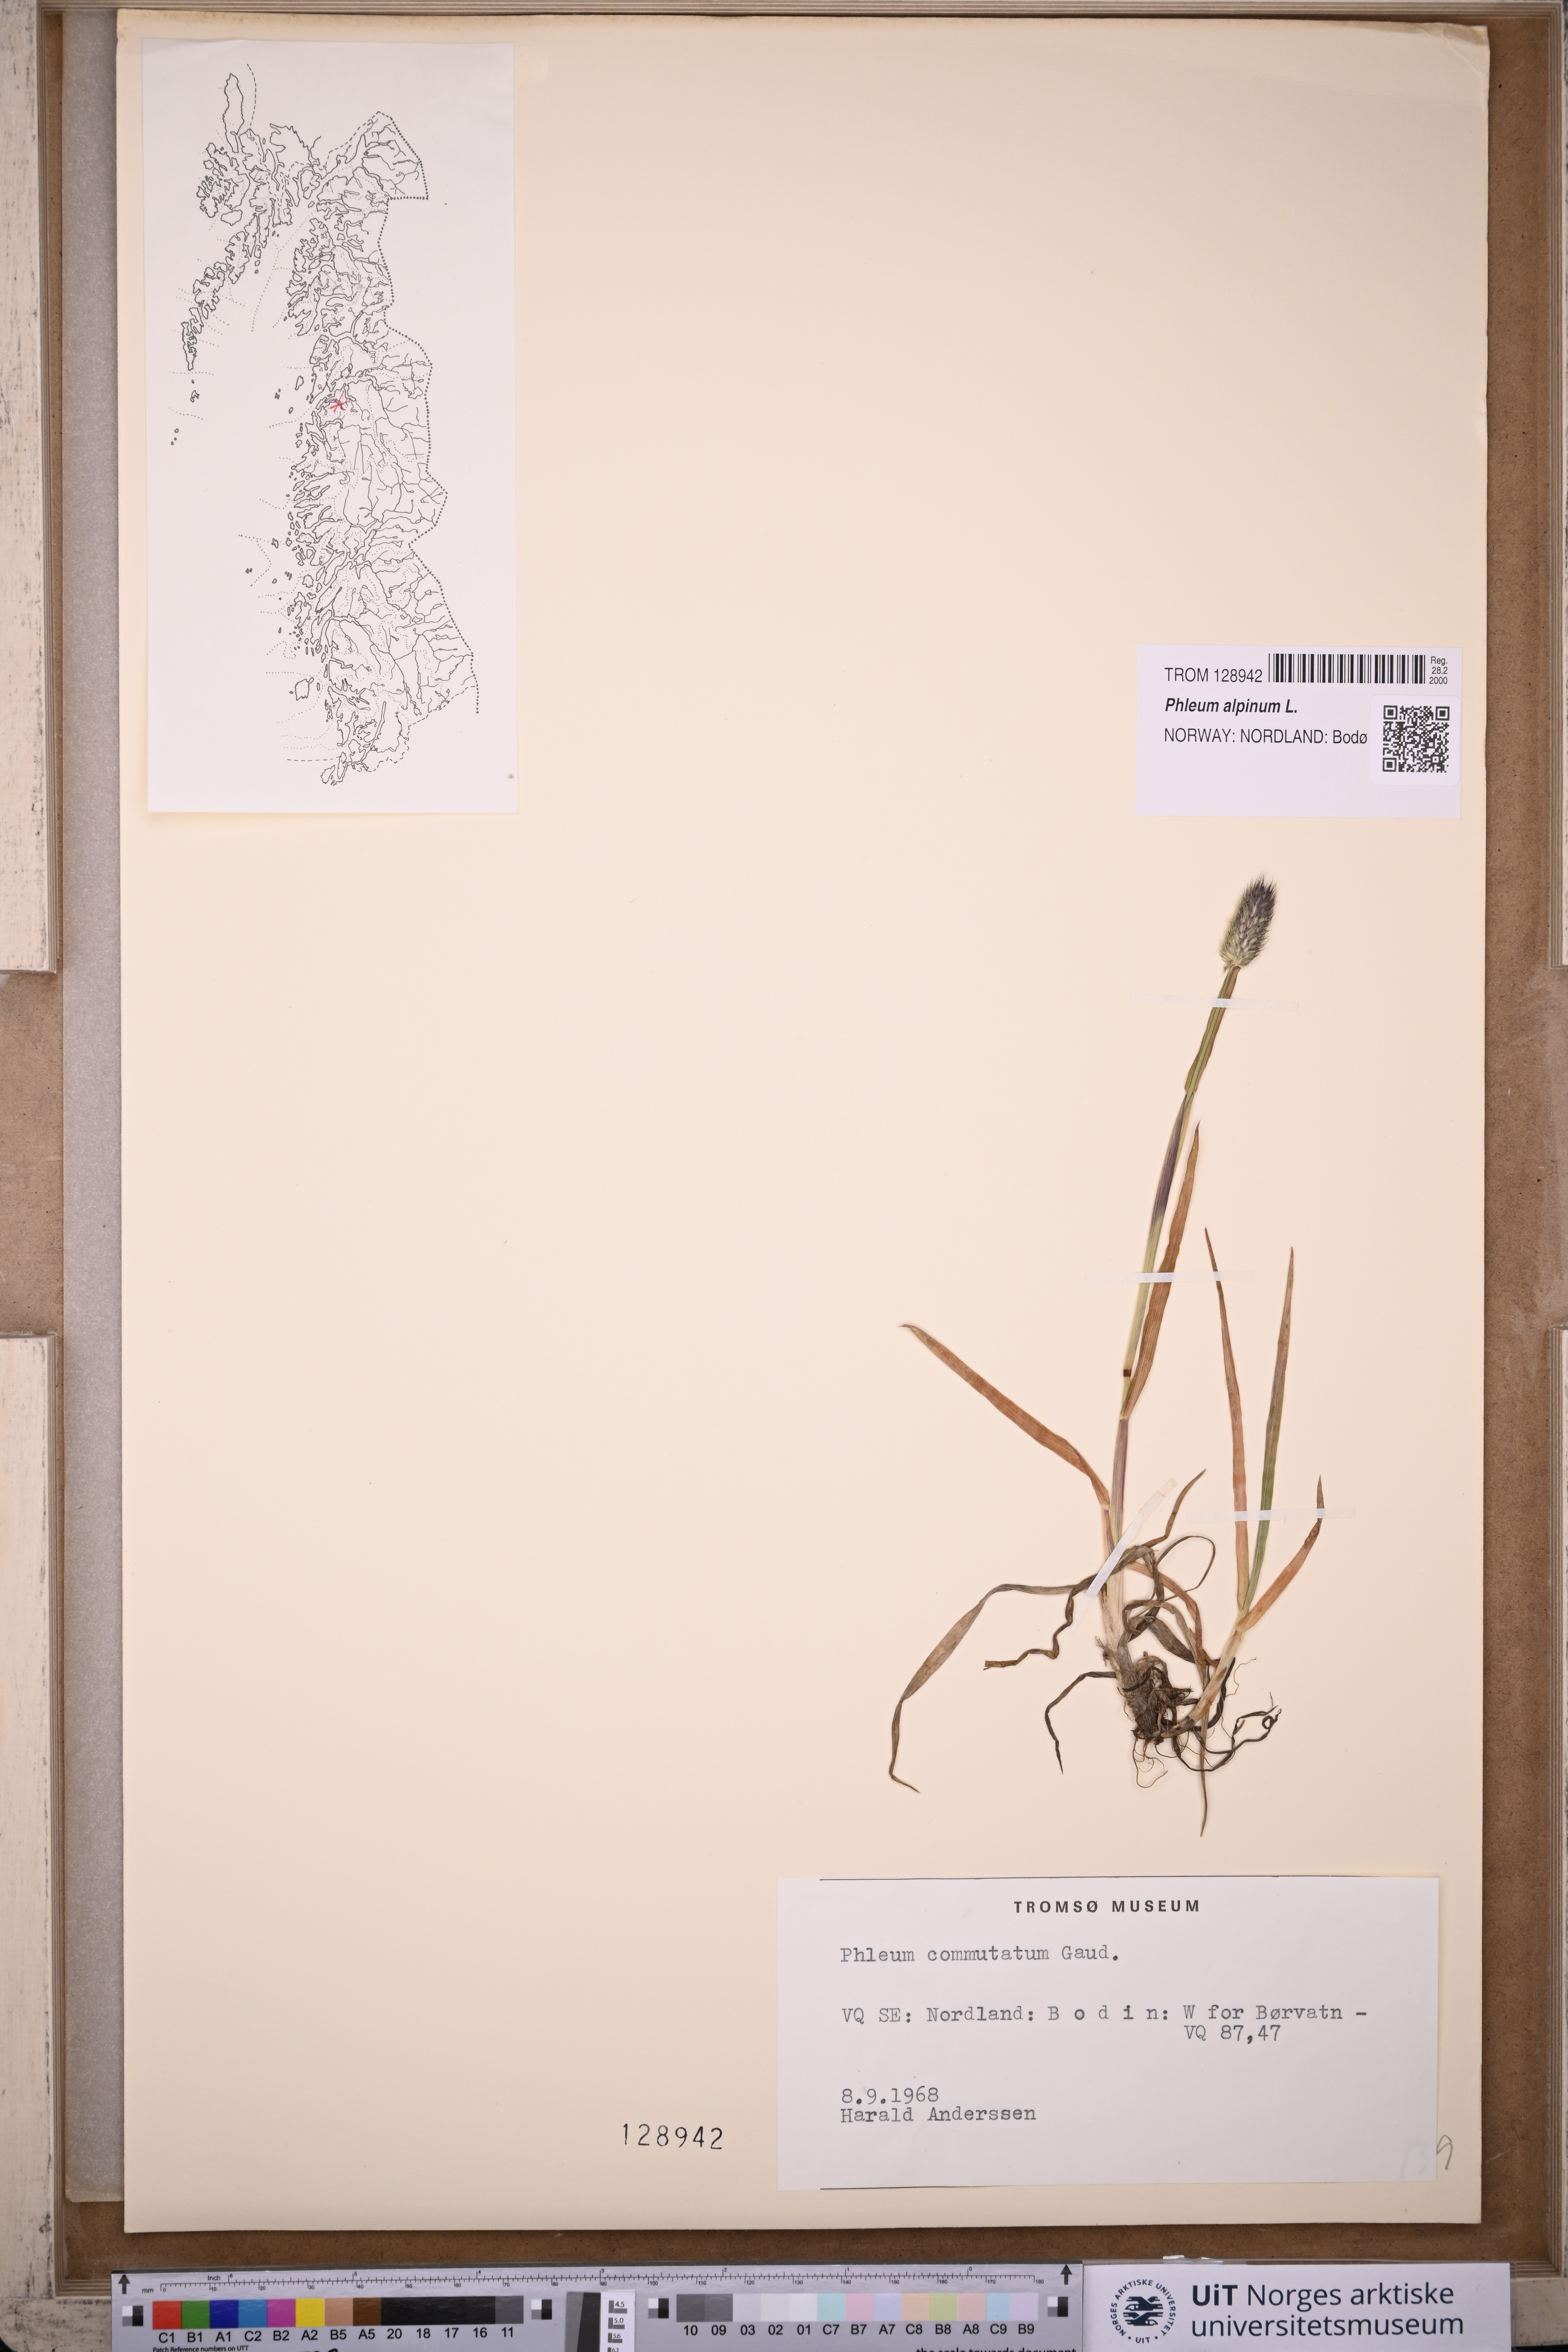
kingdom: Plantae
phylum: Tracheophyta
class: Liliopsida
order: Poales
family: Poaceae
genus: Phleum
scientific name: Phleum alpinum
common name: Alpine cat's-tail
